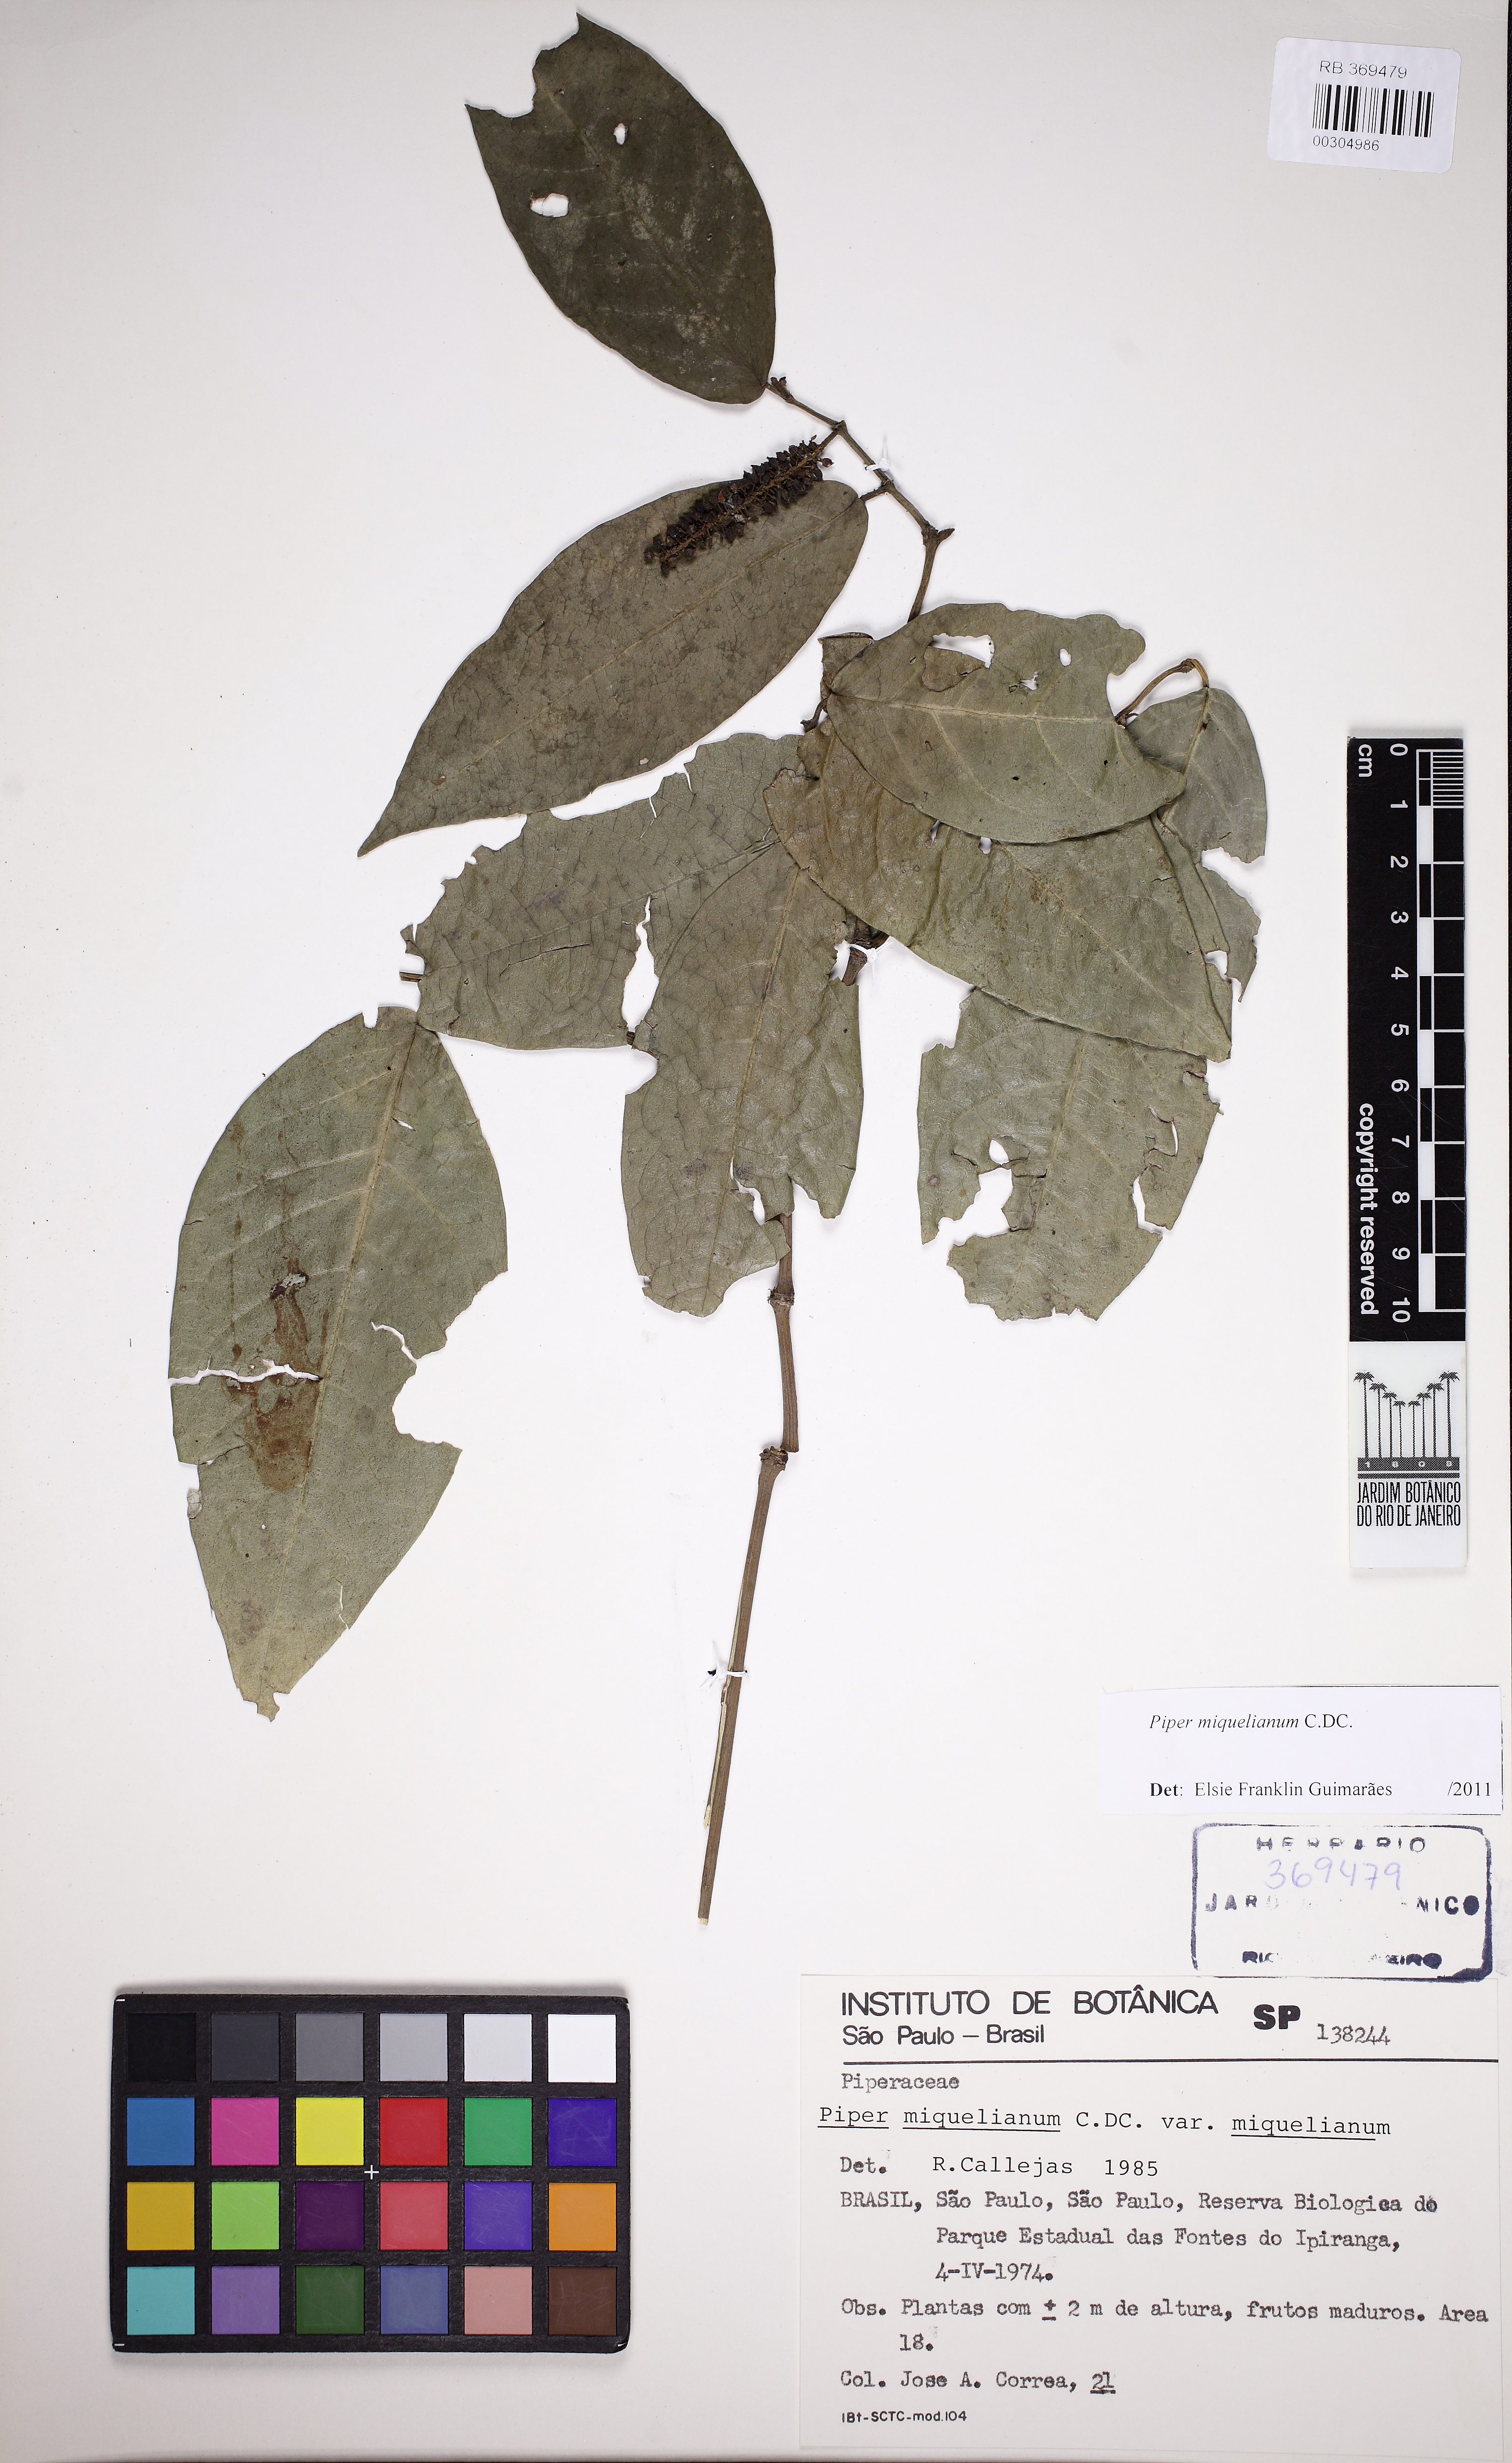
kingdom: Plantae
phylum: Tracheophyta
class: Magnoliopsida
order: Piperales
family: Piperaceae
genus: Piper
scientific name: Piper miquelianum
